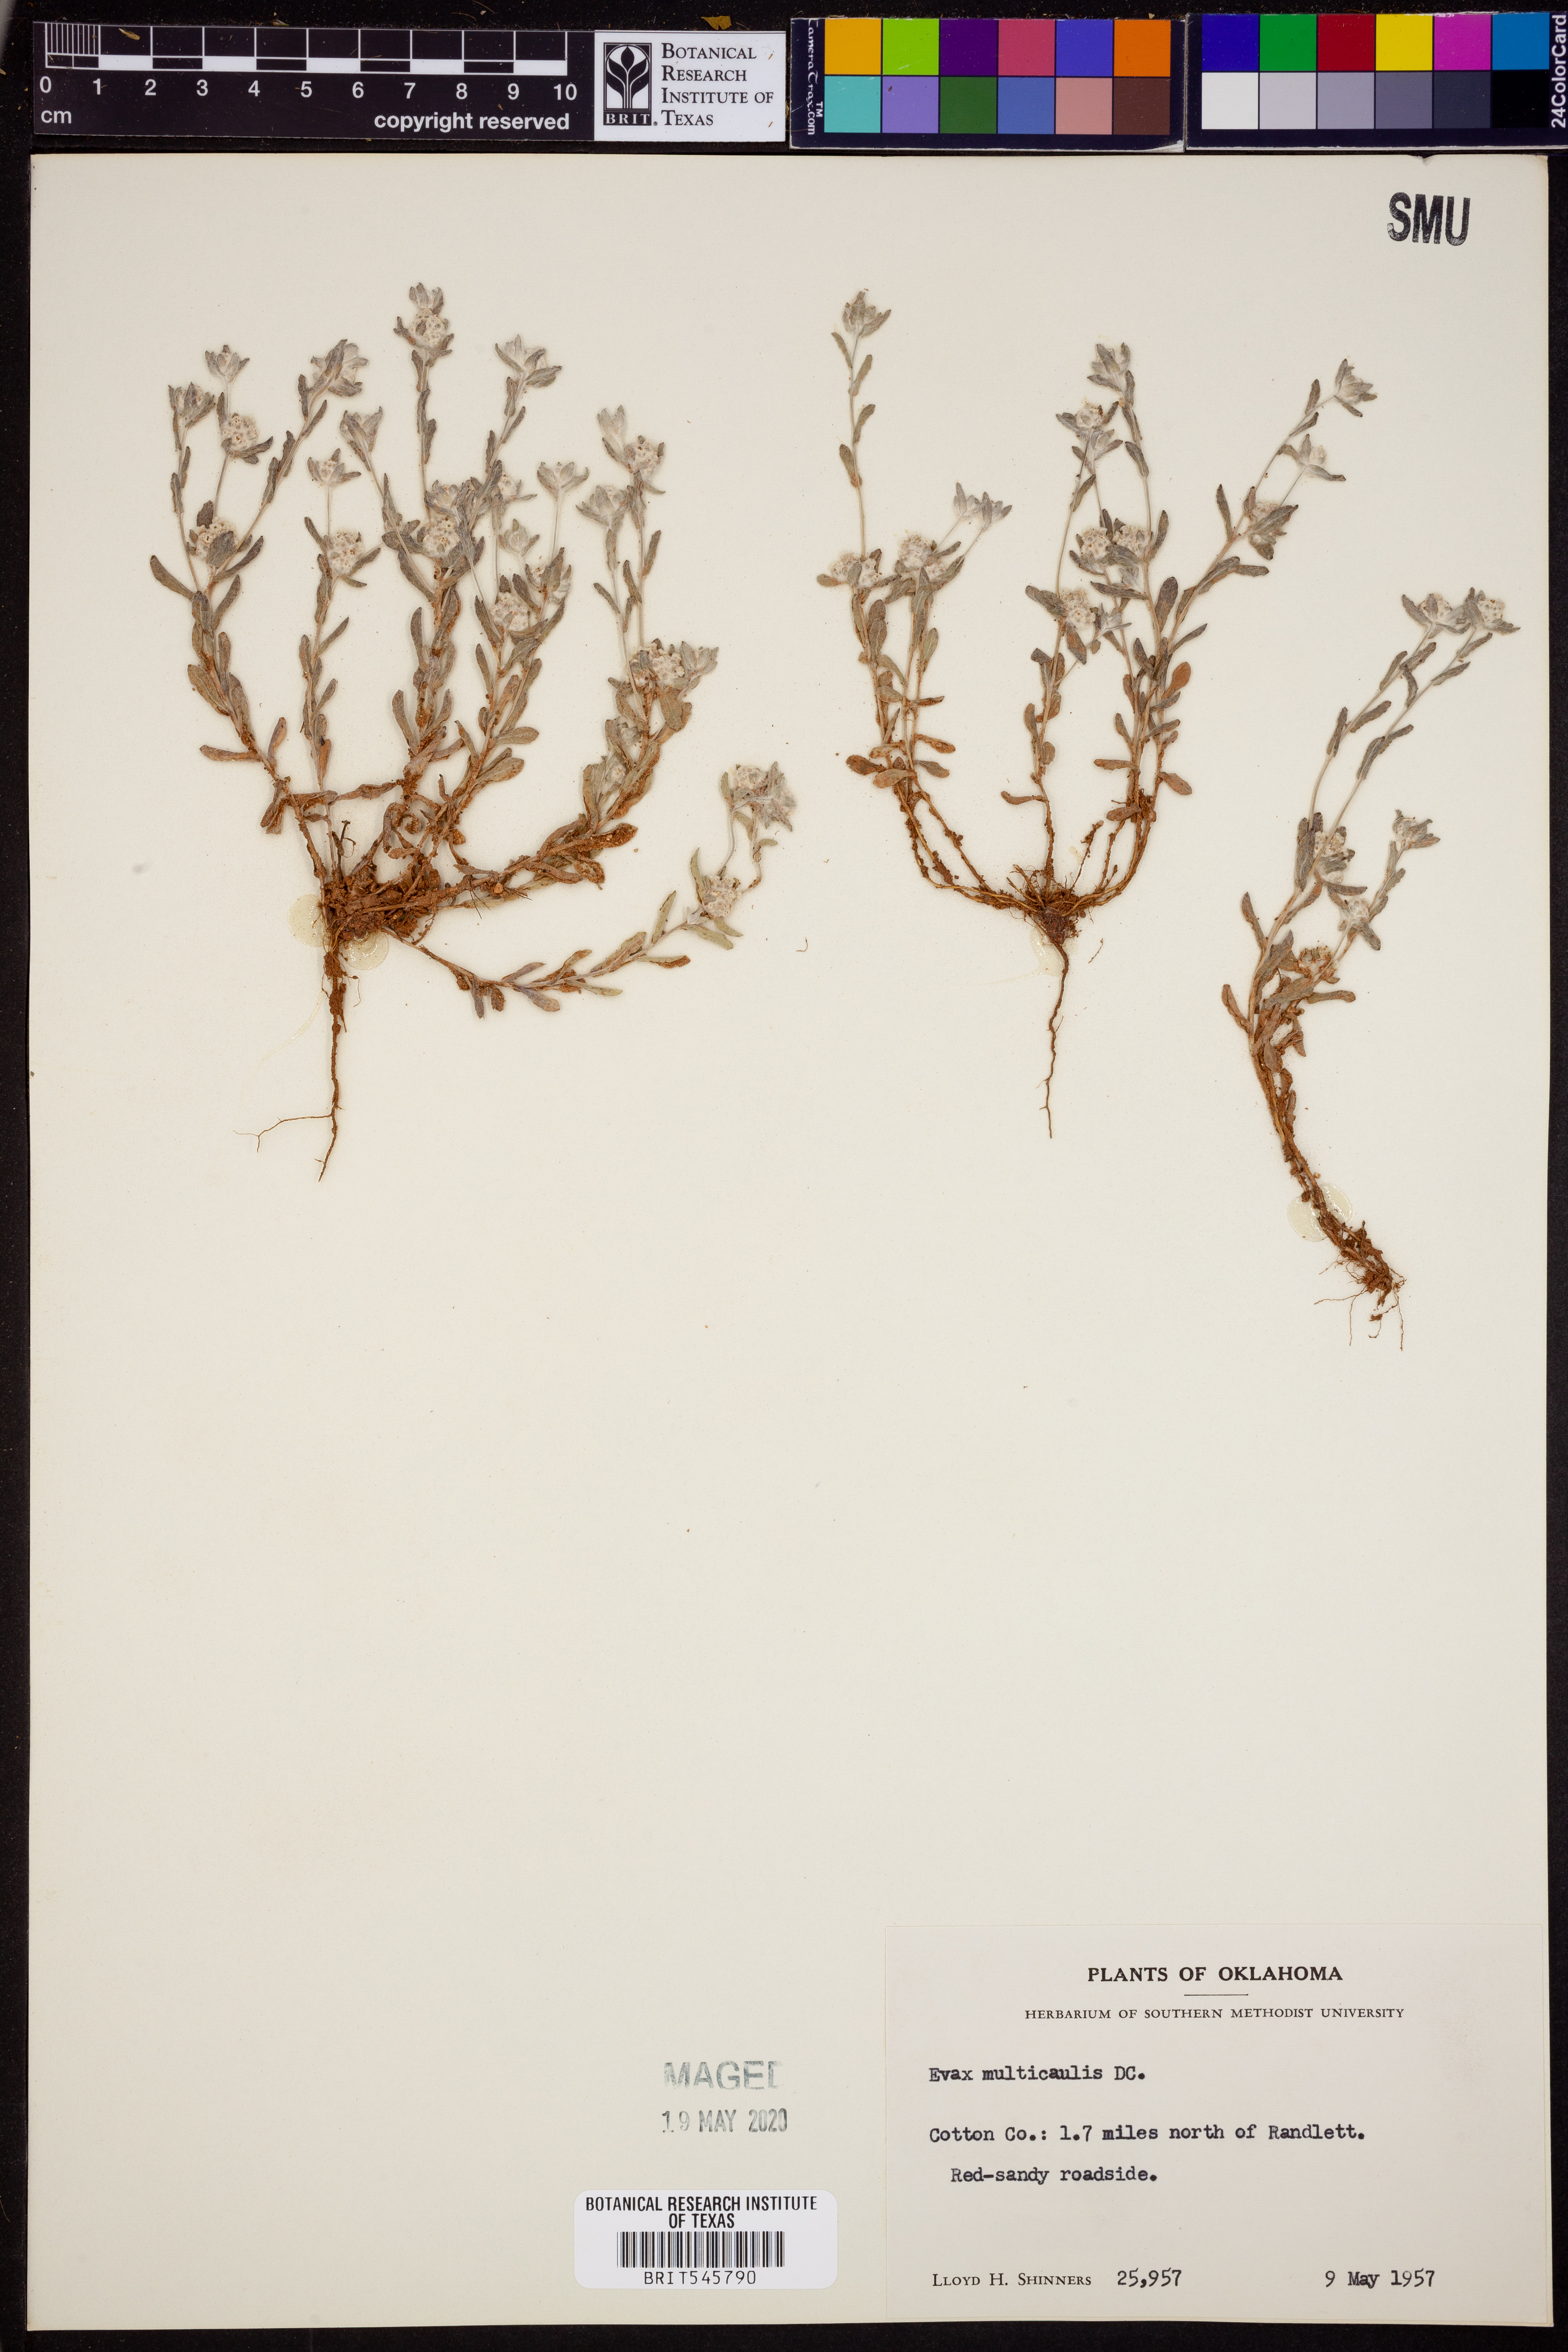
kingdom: Plantae
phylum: Tracheophyta
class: Magnoliopsida
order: Asterales
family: Asteraceae
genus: Diaperia
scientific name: Diaperia verna
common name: Many-stem rabbit-tobacco
